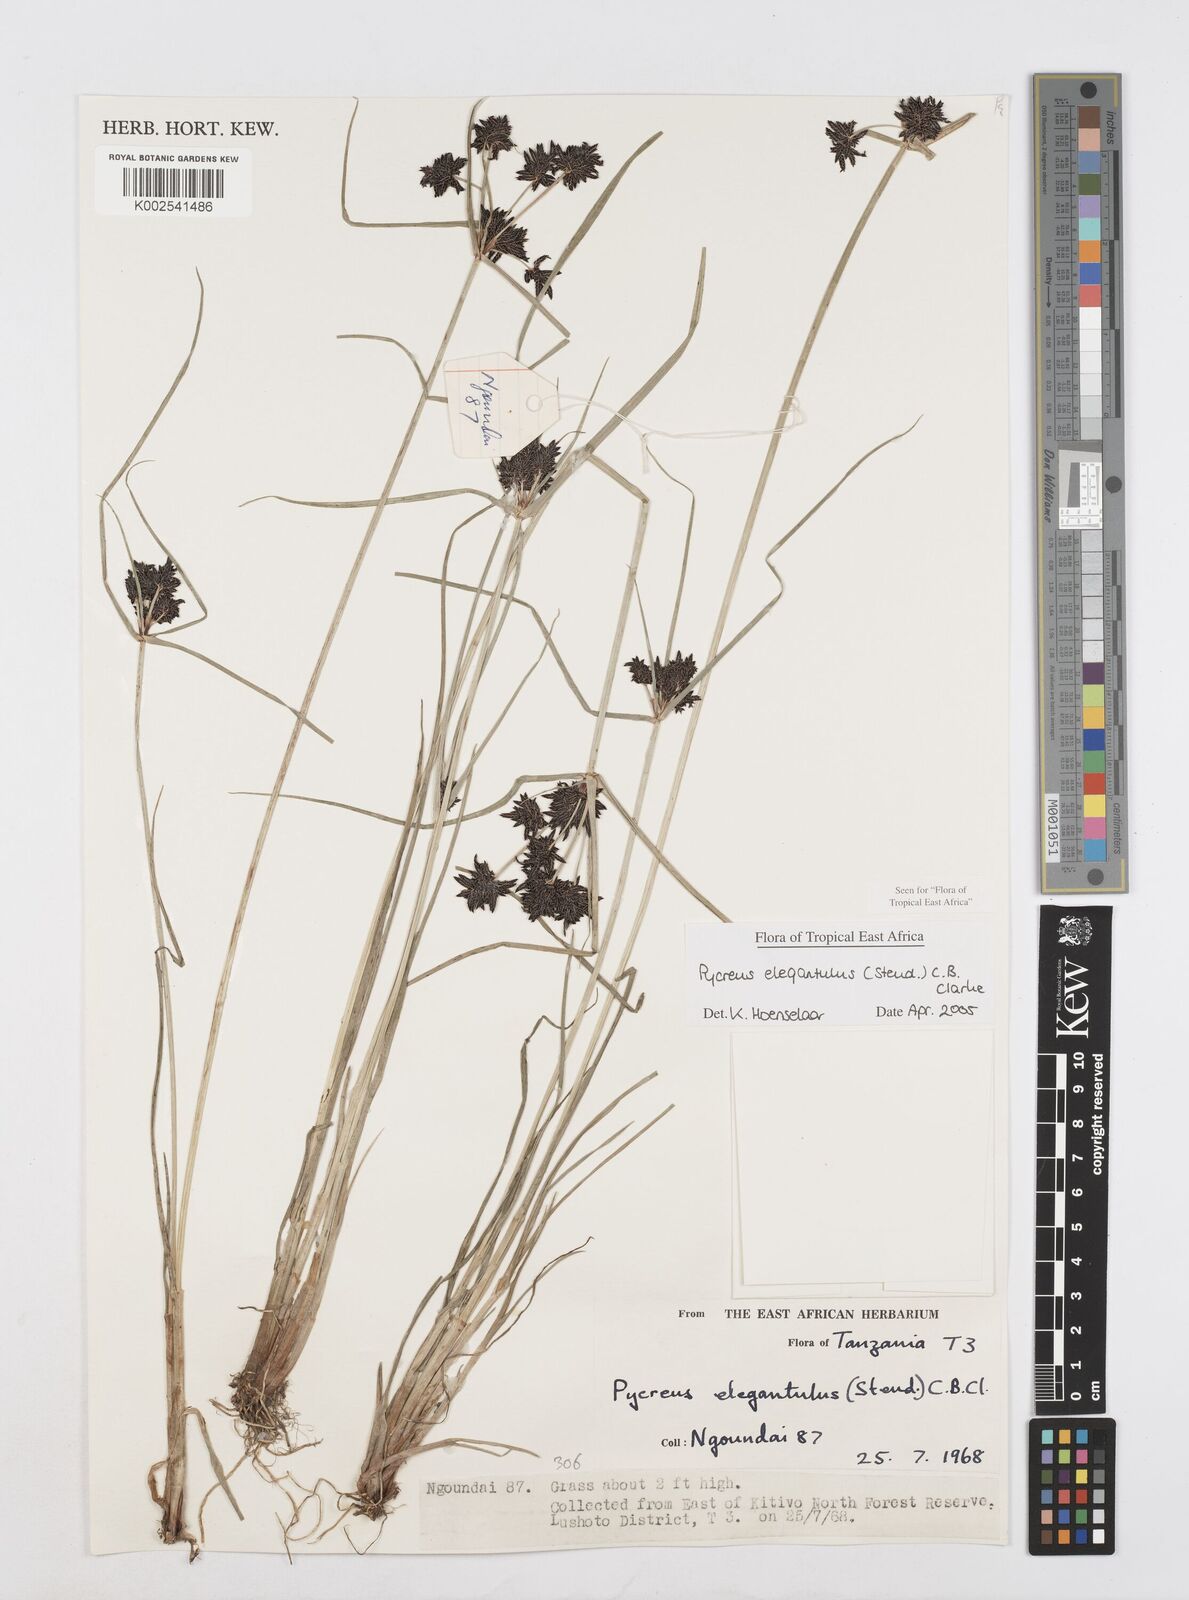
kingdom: Plantae
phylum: Tracheophyta
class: Liliopsida
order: Poales
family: Cyperaceae
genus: Cyperus
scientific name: Cyperus elegantulus
